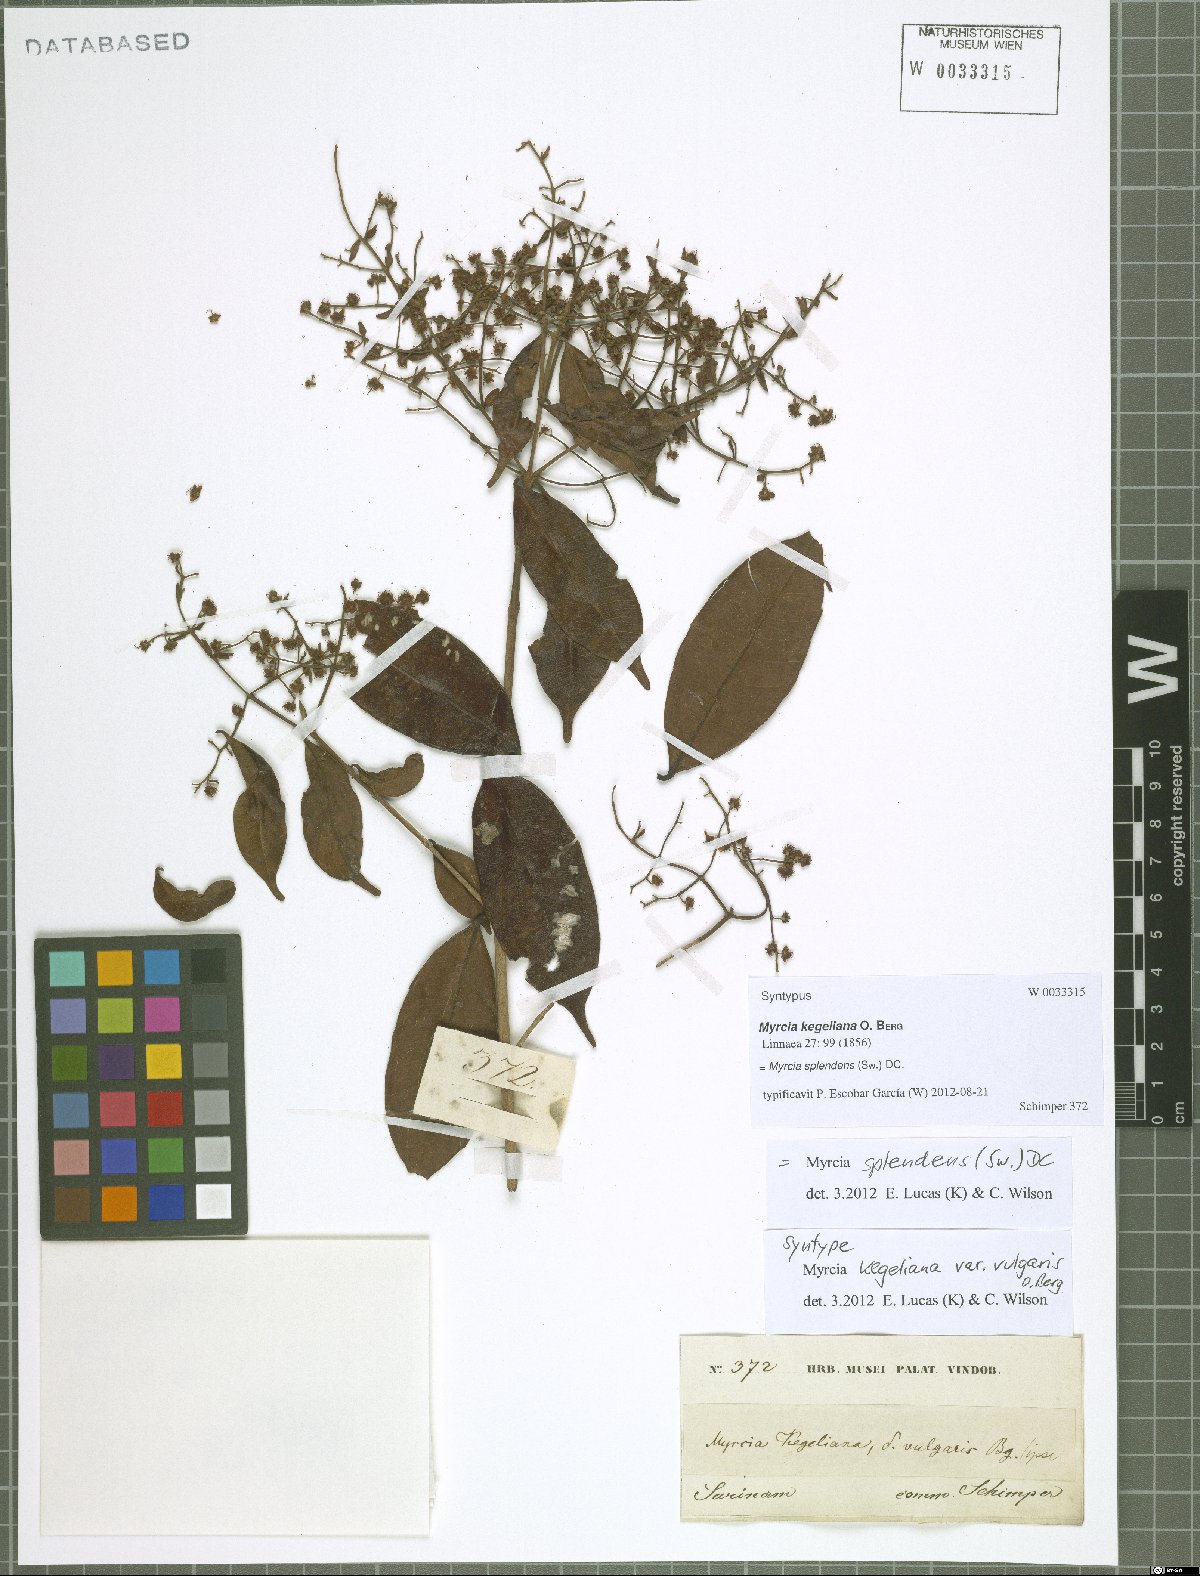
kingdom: Plantae
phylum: Tracheophyta
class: Magnoliopsida
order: Myrtales
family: Myrtaceae
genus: Myrcia
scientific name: Myrcia splendens
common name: Surinam cherry
